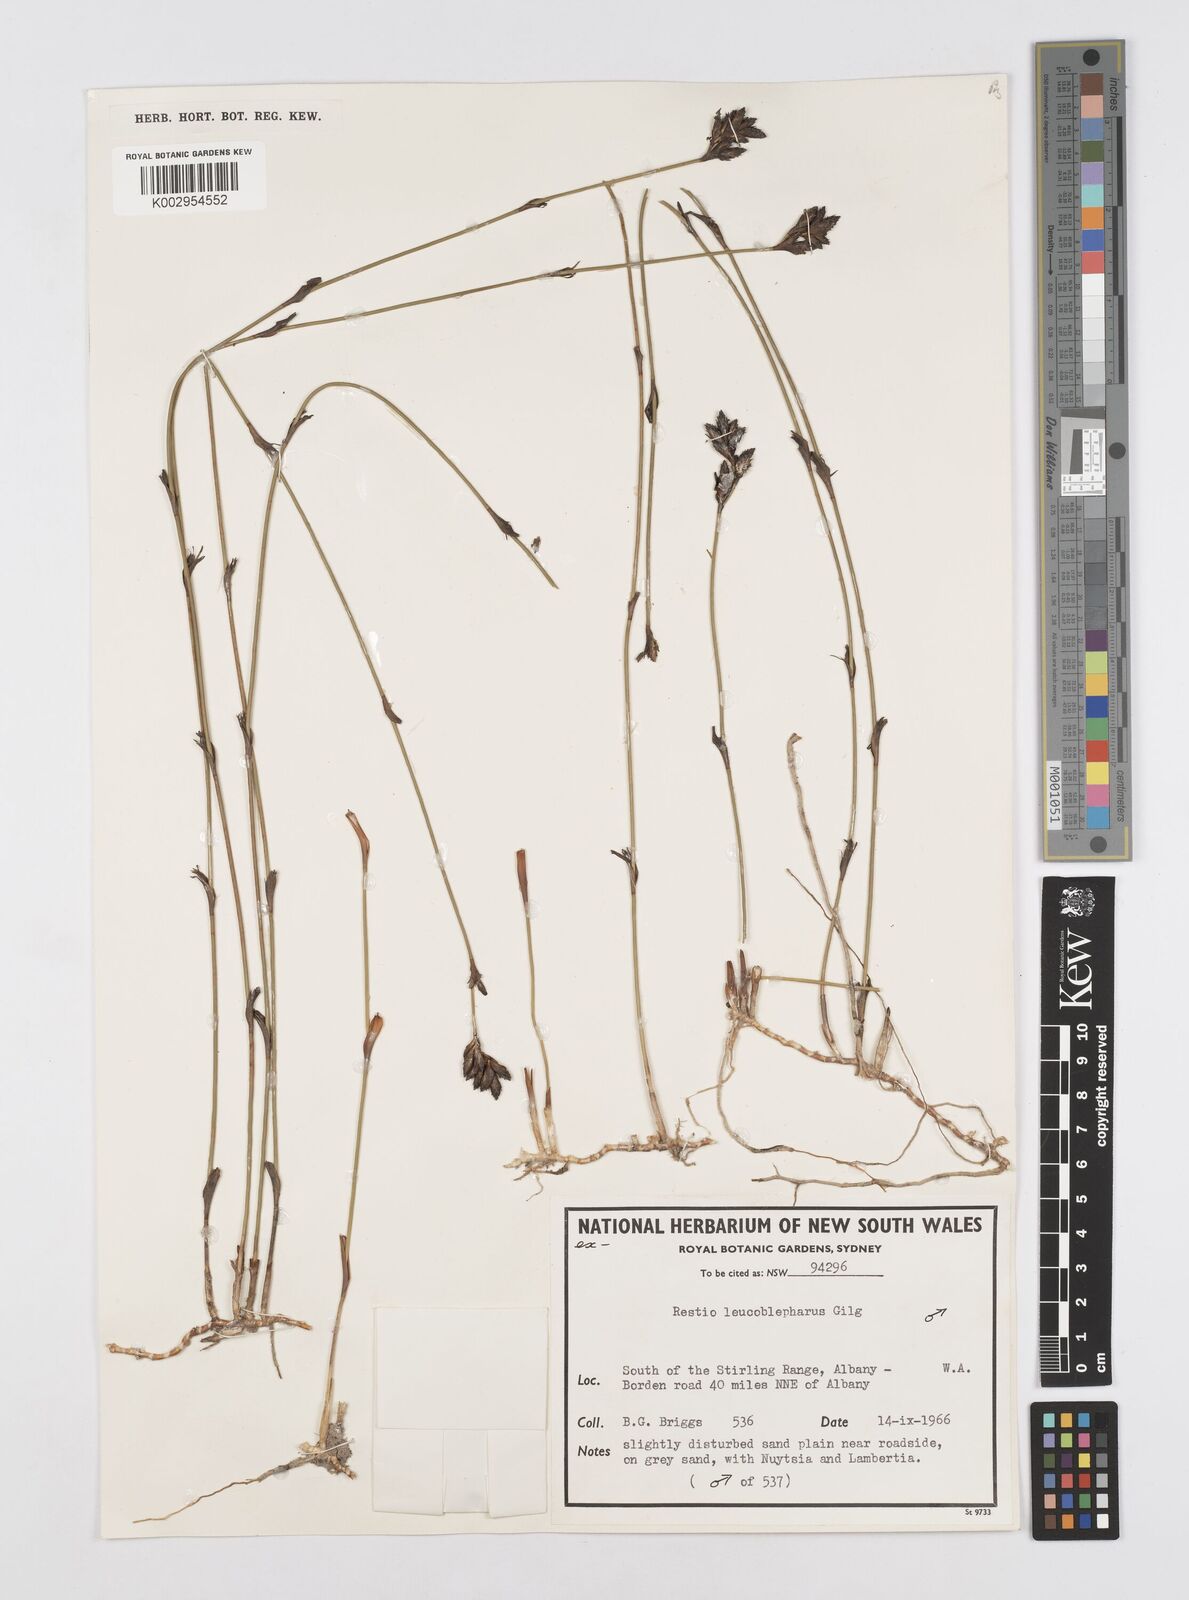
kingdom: Plantae
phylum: Tracheophyta
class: Liliopsida
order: Poales
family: Restionaceae
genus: Chordifex
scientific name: Chordifex leucoblepharus
